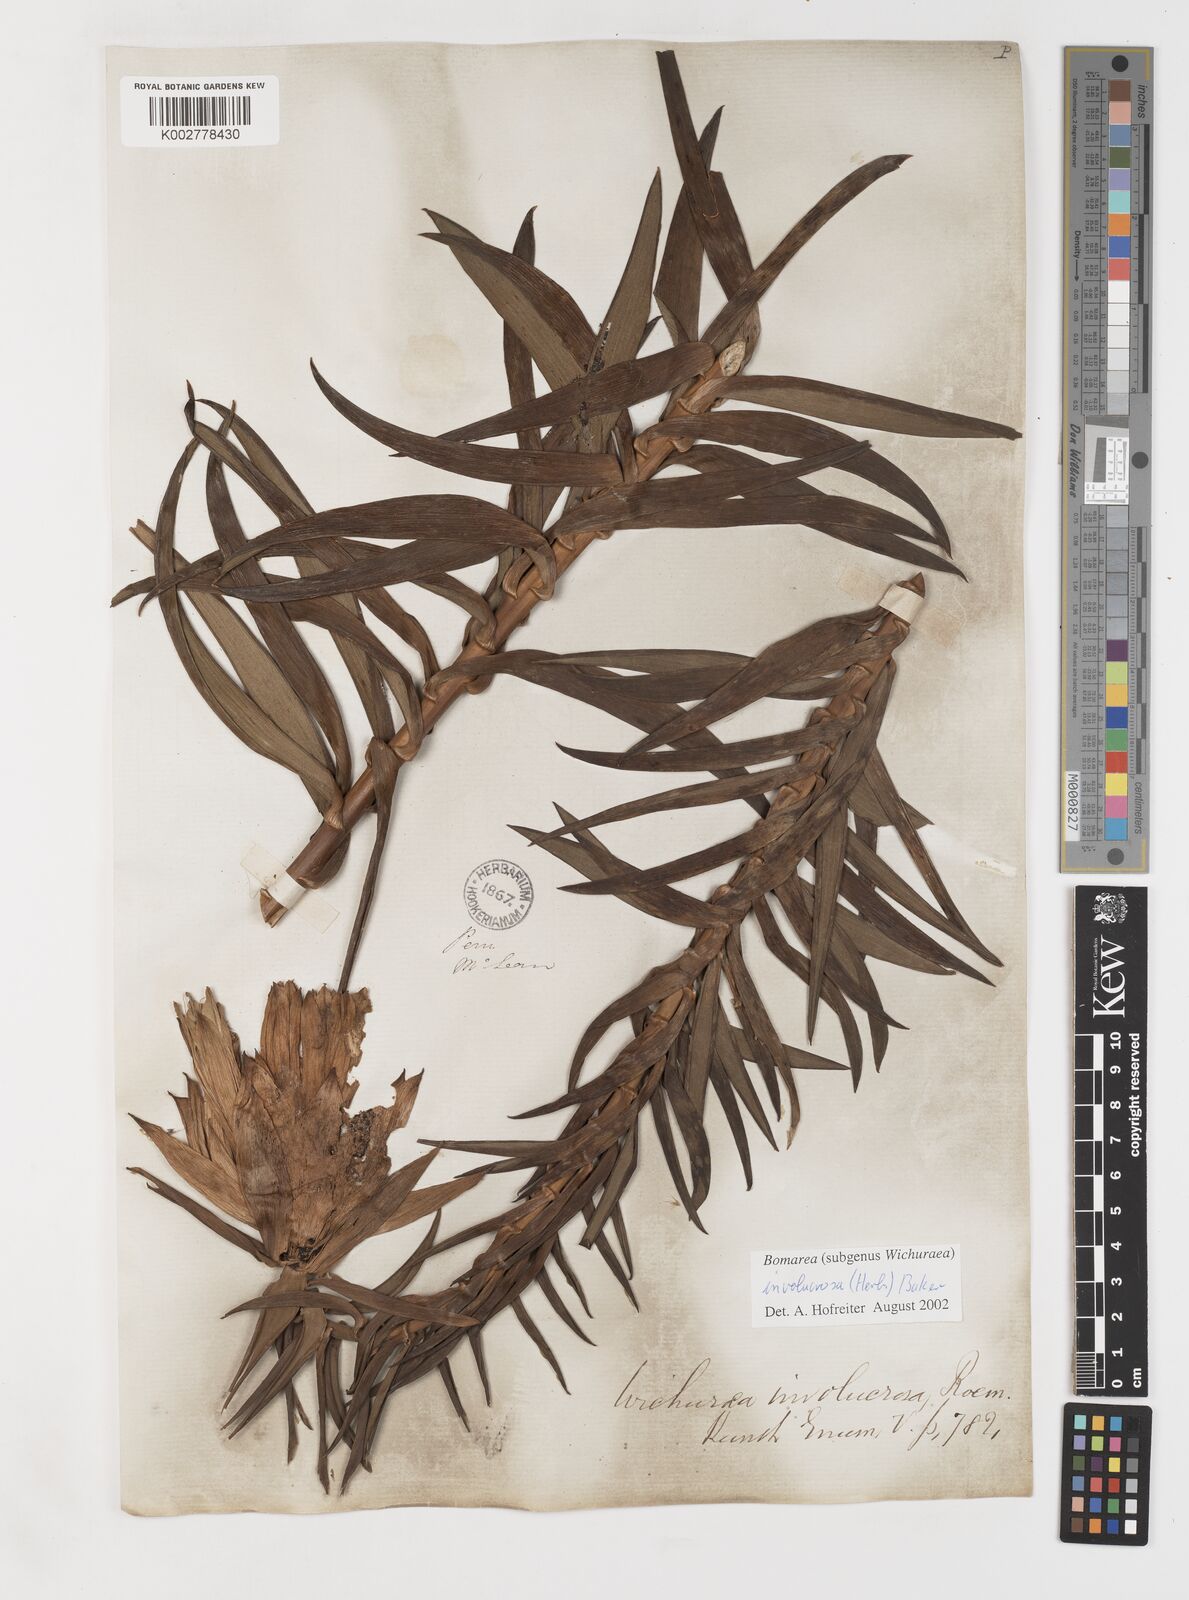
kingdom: Plantae
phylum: Tracheophyta
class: Liliopsida
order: Liliales
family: Alstroemeriaceae
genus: Bomarea
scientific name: Bomarea involucrosa
